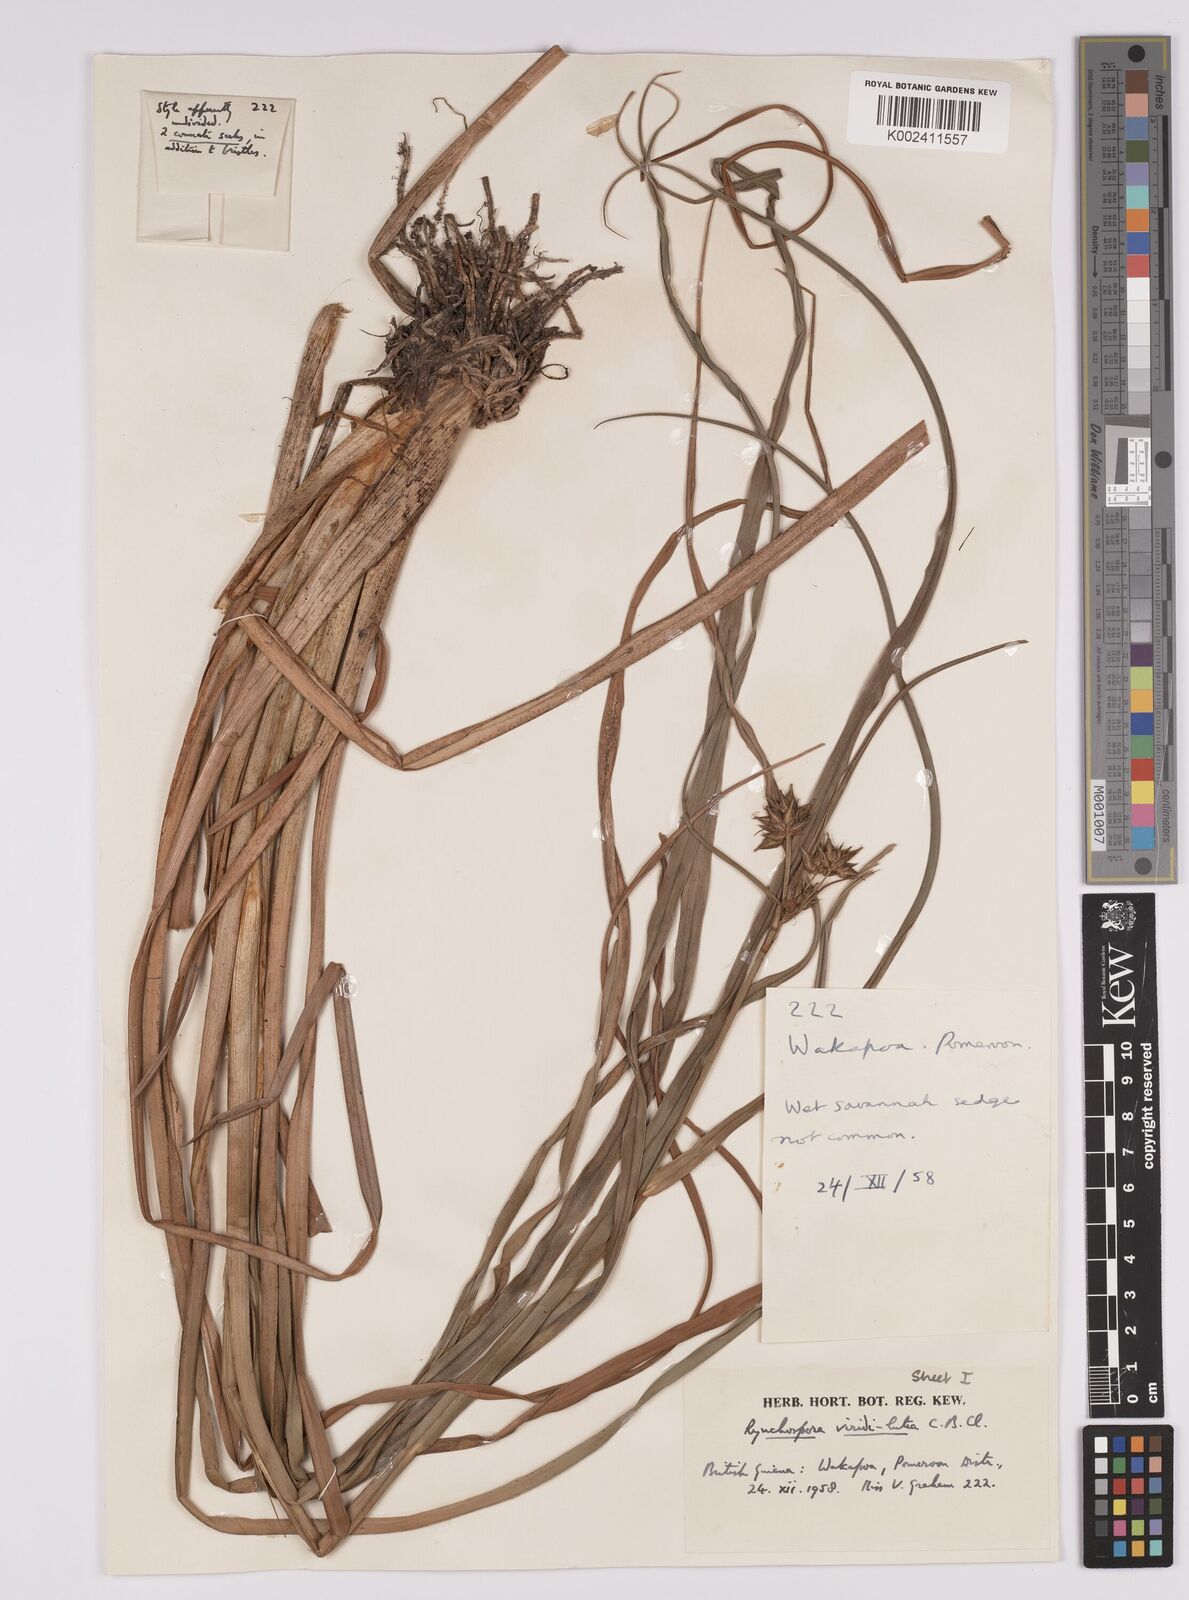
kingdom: Plantae
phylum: Tracheophyta
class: Liliopsida
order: Poales
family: Cyperaceae
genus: Rhynchospora
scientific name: Rhynchospora hassleri
